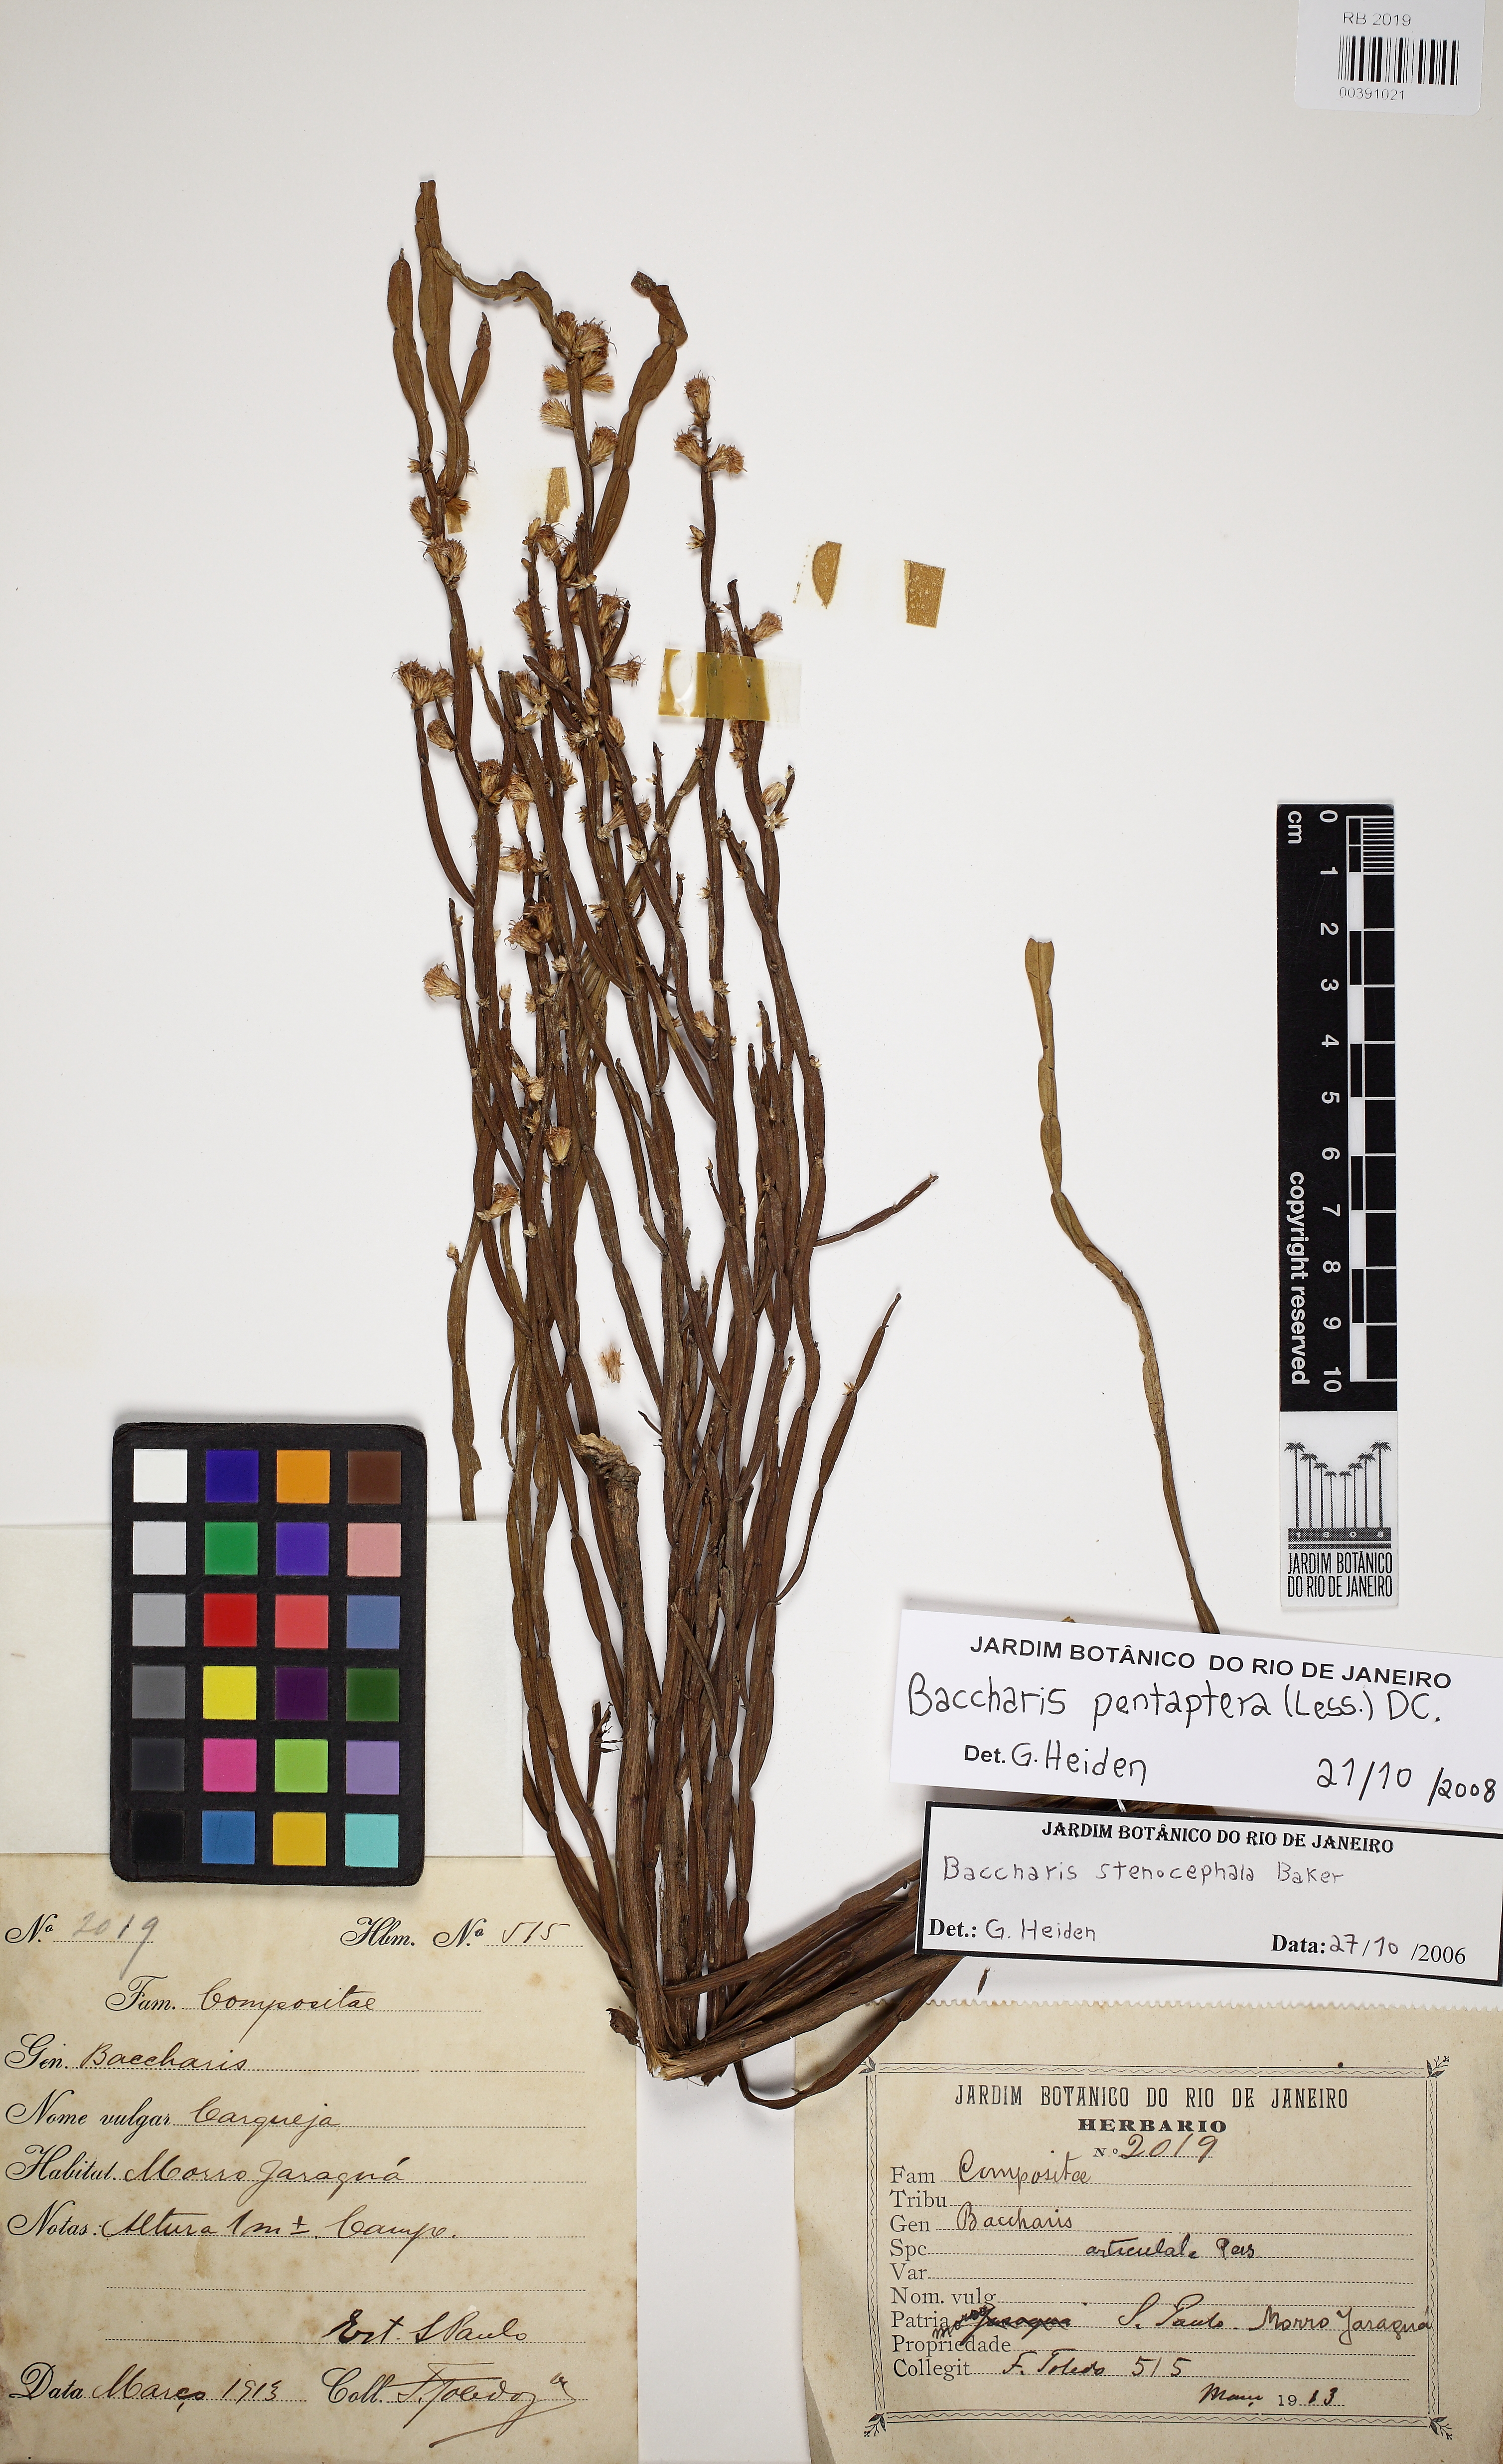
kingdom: Plantae
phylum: Tracheophyta
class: Magnoliopsida
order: Asterales
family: Asteraceae
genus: Baccharis
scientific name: Baccharis pentaptera
